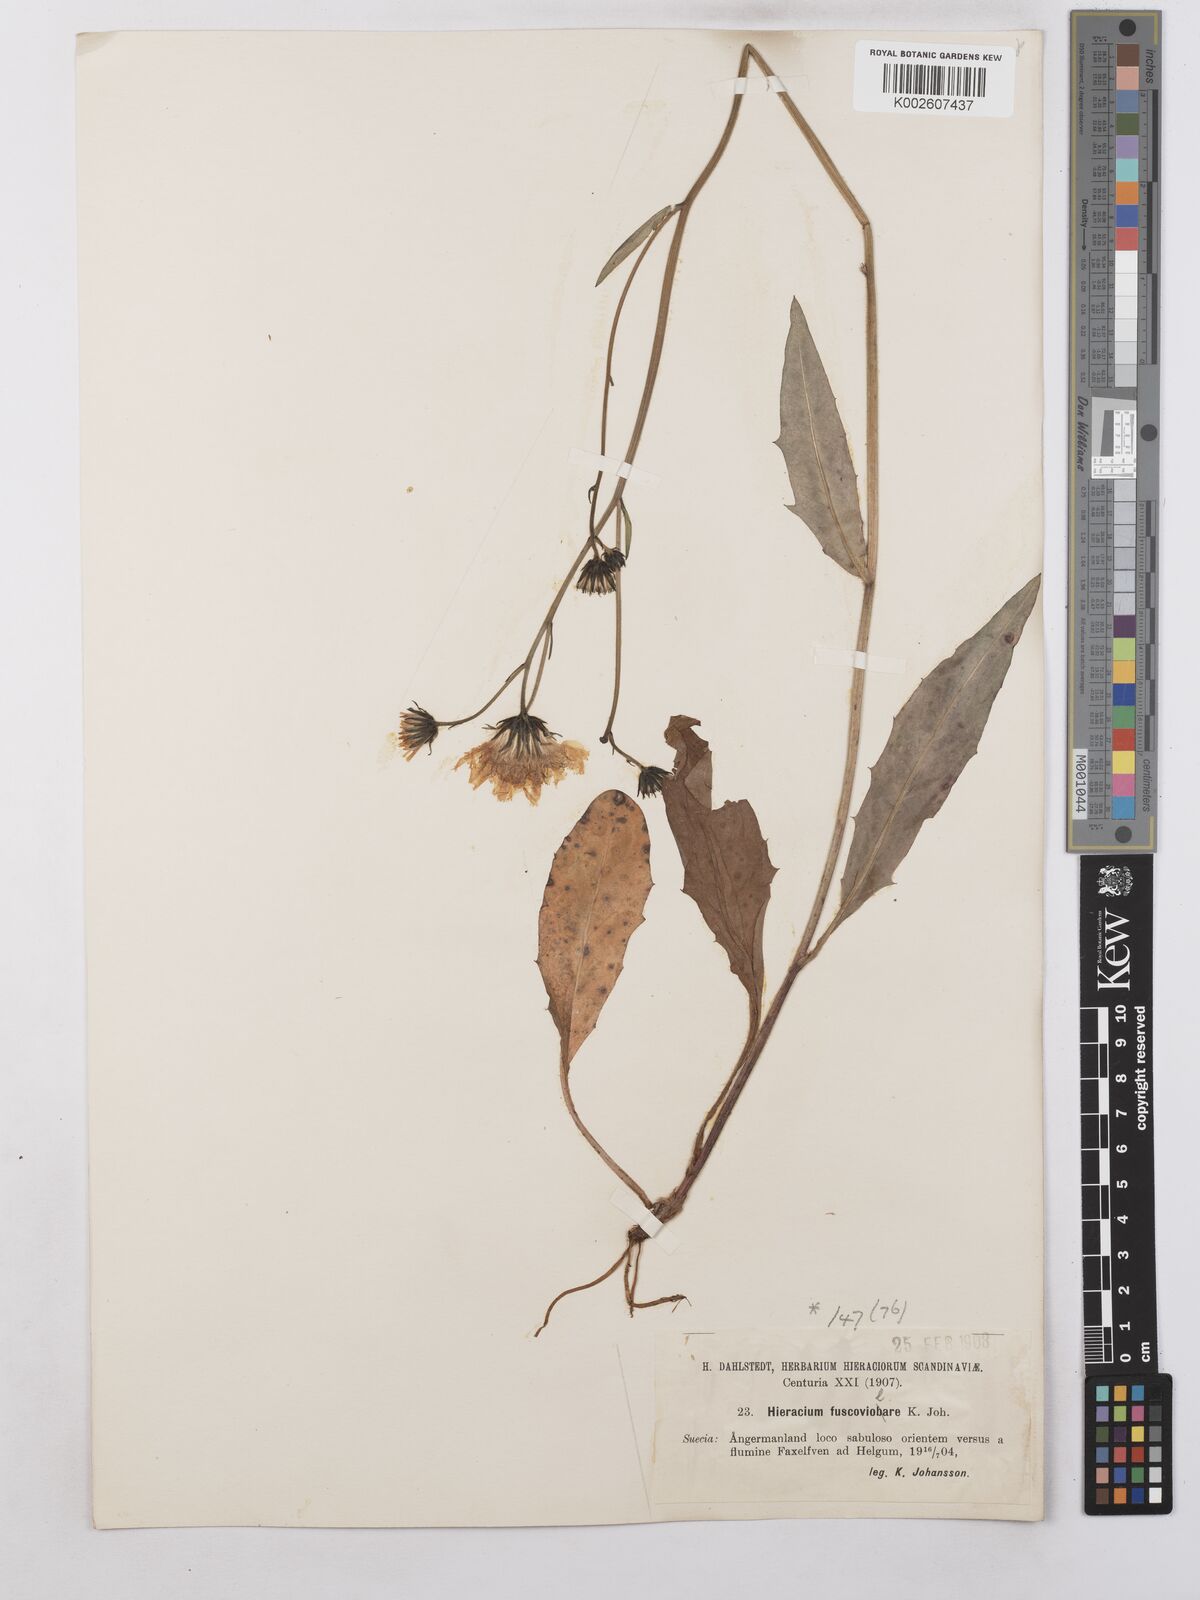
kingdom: Plantae
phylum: Tracheophyta
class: Magnoliopsida
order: Asterales
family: Asteraceae
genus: Hieracium
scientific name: Hieracium caesium
